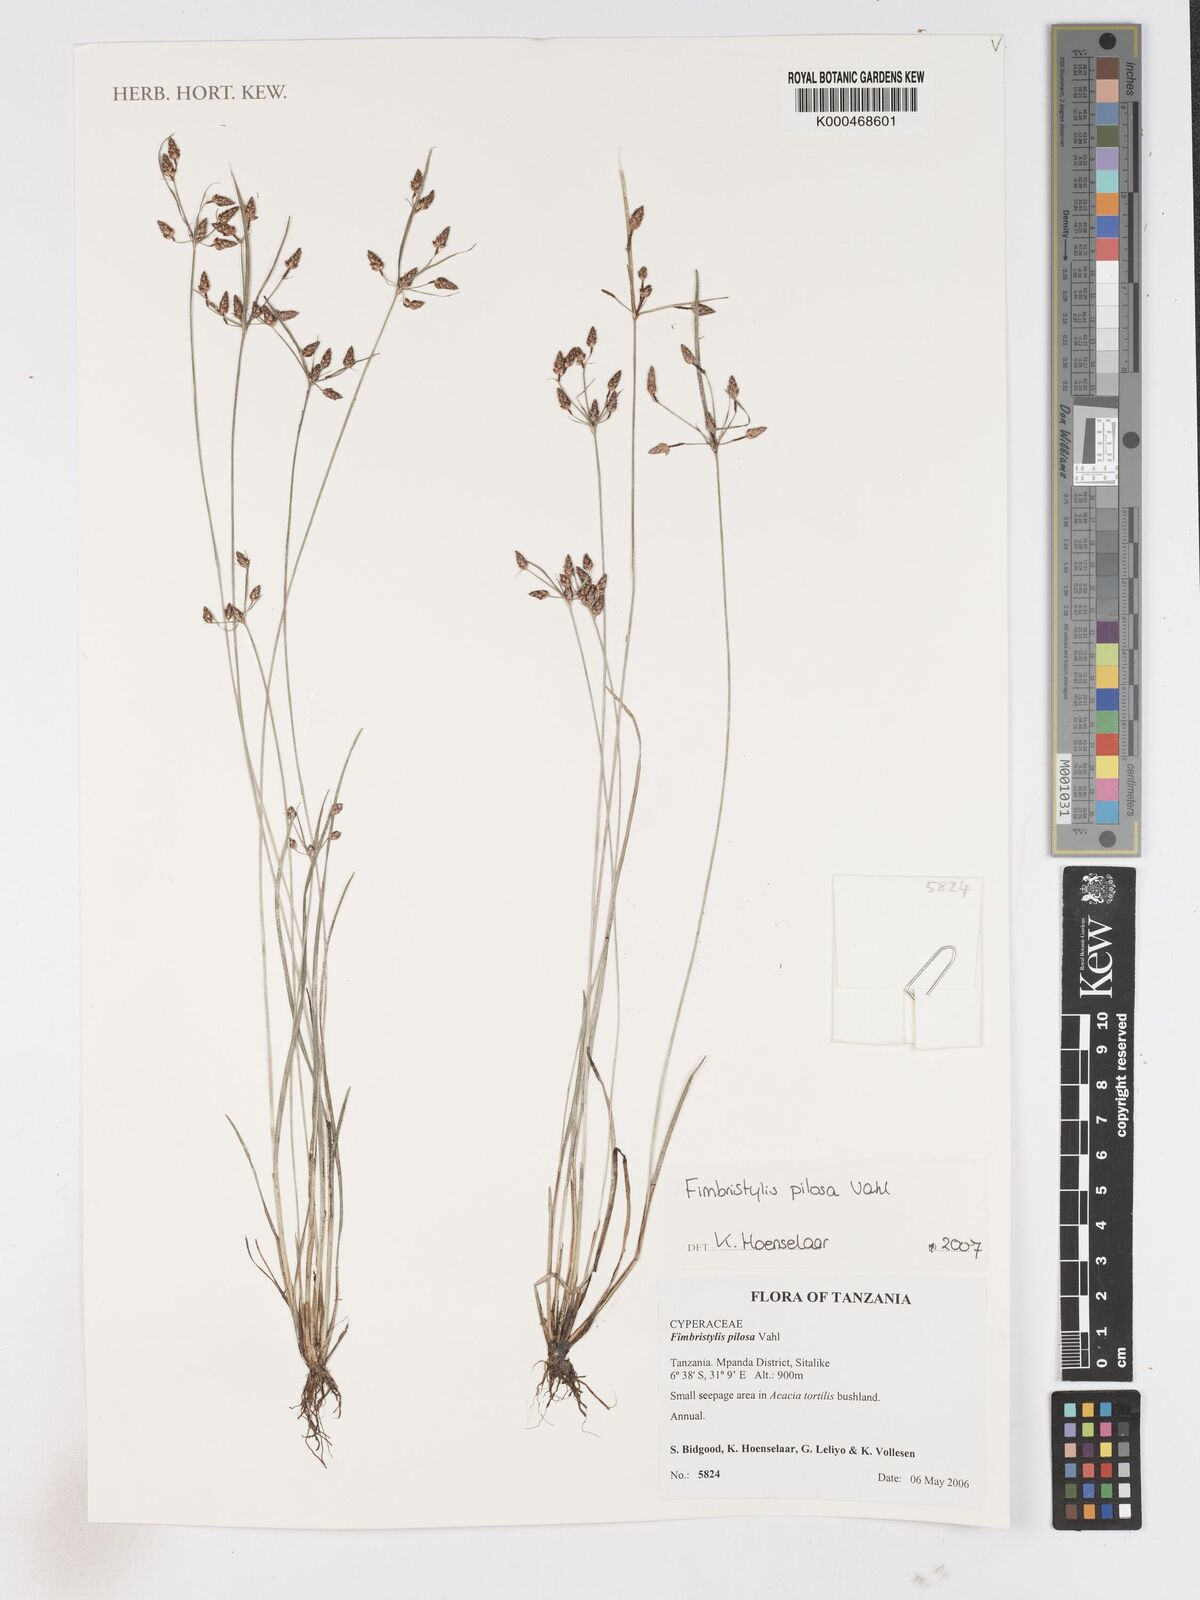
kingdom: Plantae
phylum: Tracheophyta
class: Liliopsida
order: Poales
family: Cyperaceae
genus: Fimbristylis
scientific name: Fimbristylis pilosa
